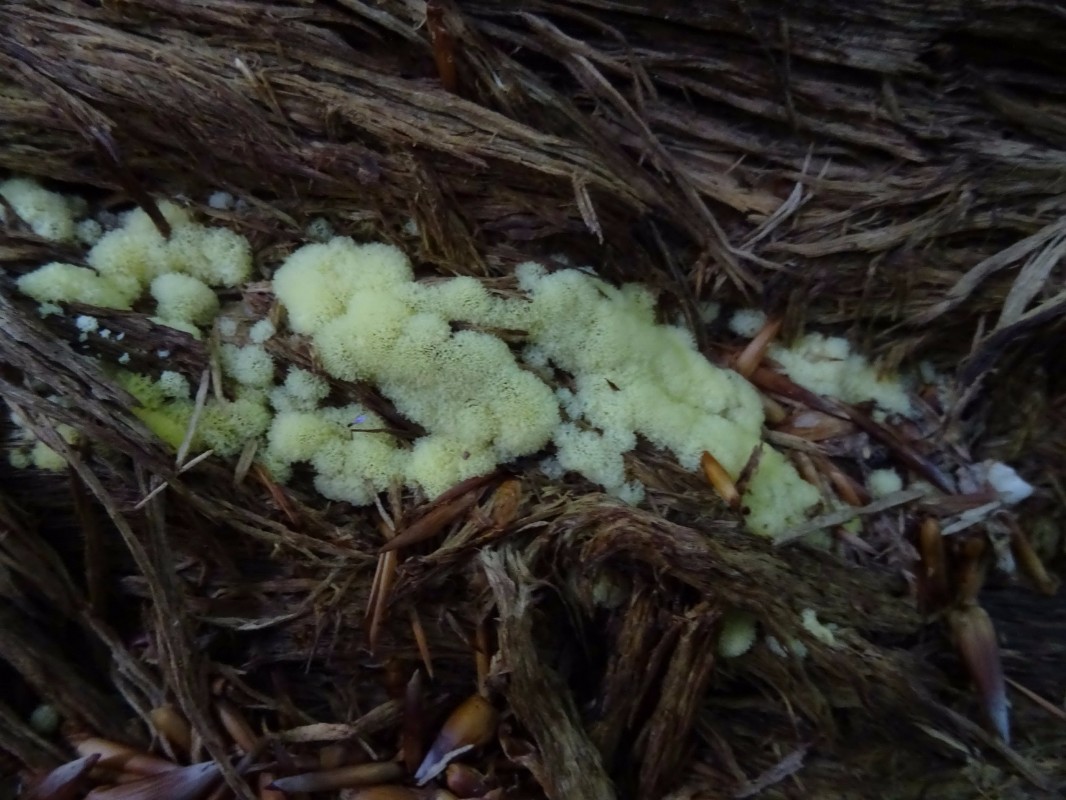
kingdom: Protozoa
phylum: Mycetozoa
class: Protosteliomycetes
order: Ceratiomyxales
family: Ceratiomyxaceae
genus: Ceratiomyxa
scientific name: Ceratiomyxa fruticulosa
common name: Honeycomb coral slime mold
